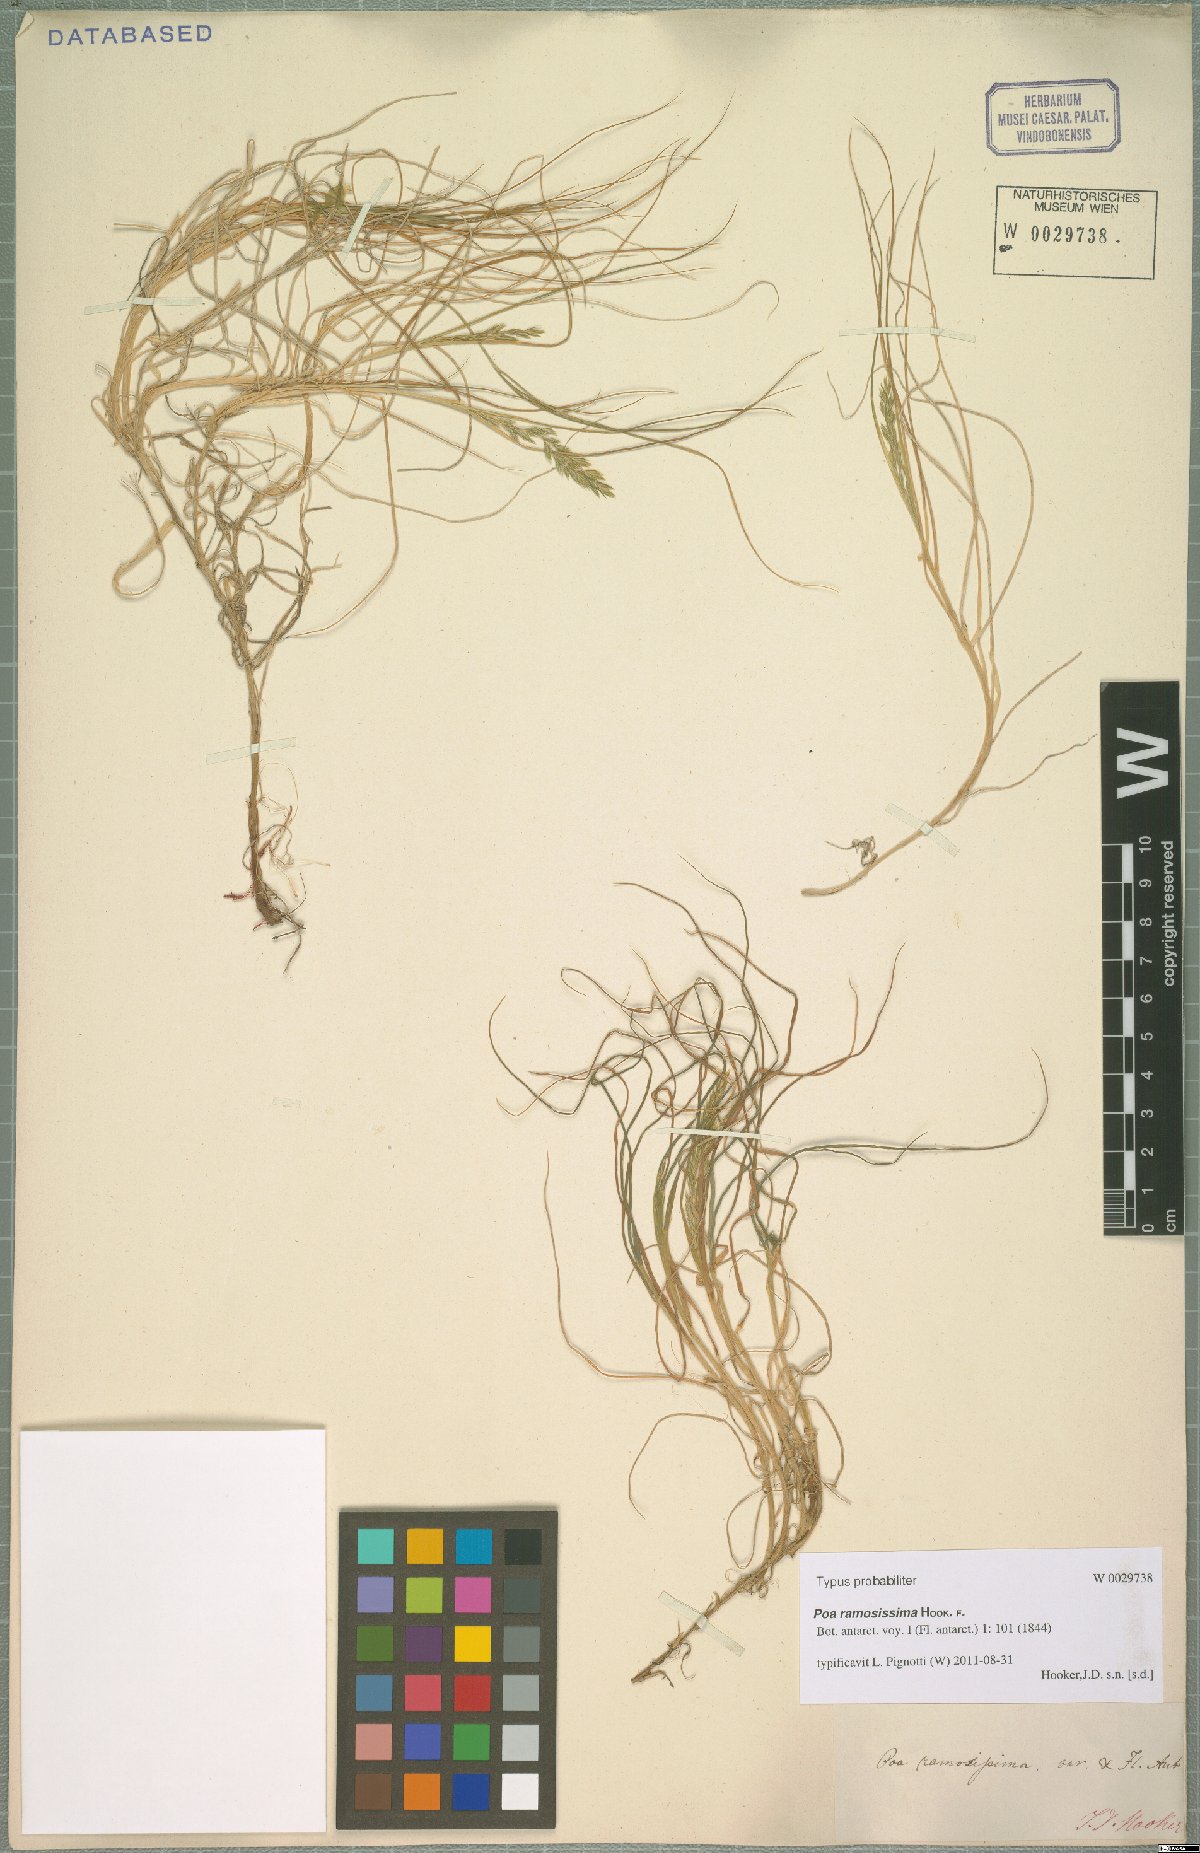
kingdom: Plantae
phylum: Tracheophyta
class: Liliopsida
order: Poales
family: Poaceae
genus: Poa
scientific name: Poa ramosissima
